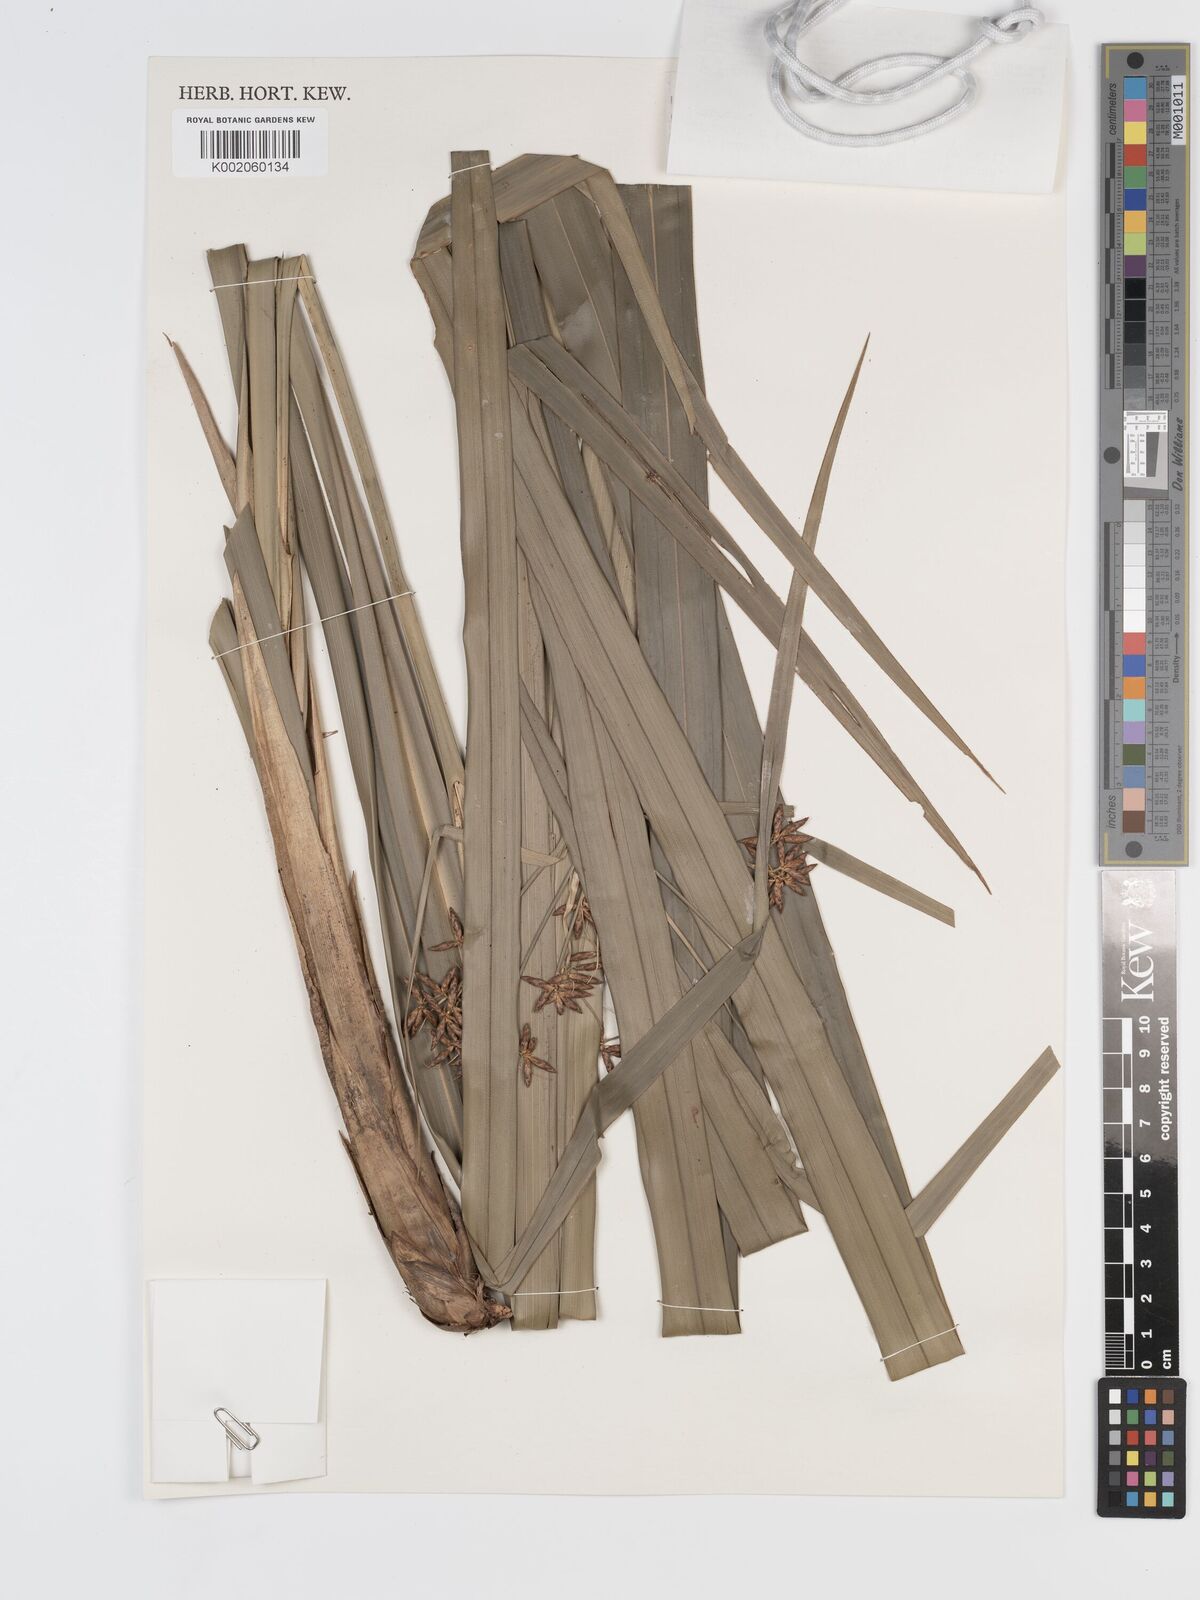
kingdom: Plantae
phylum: Tracheophyta
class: Liliopsida
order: Poales
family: Cyperaceae
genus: Diplasia
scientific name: Diplasia karatifolia
